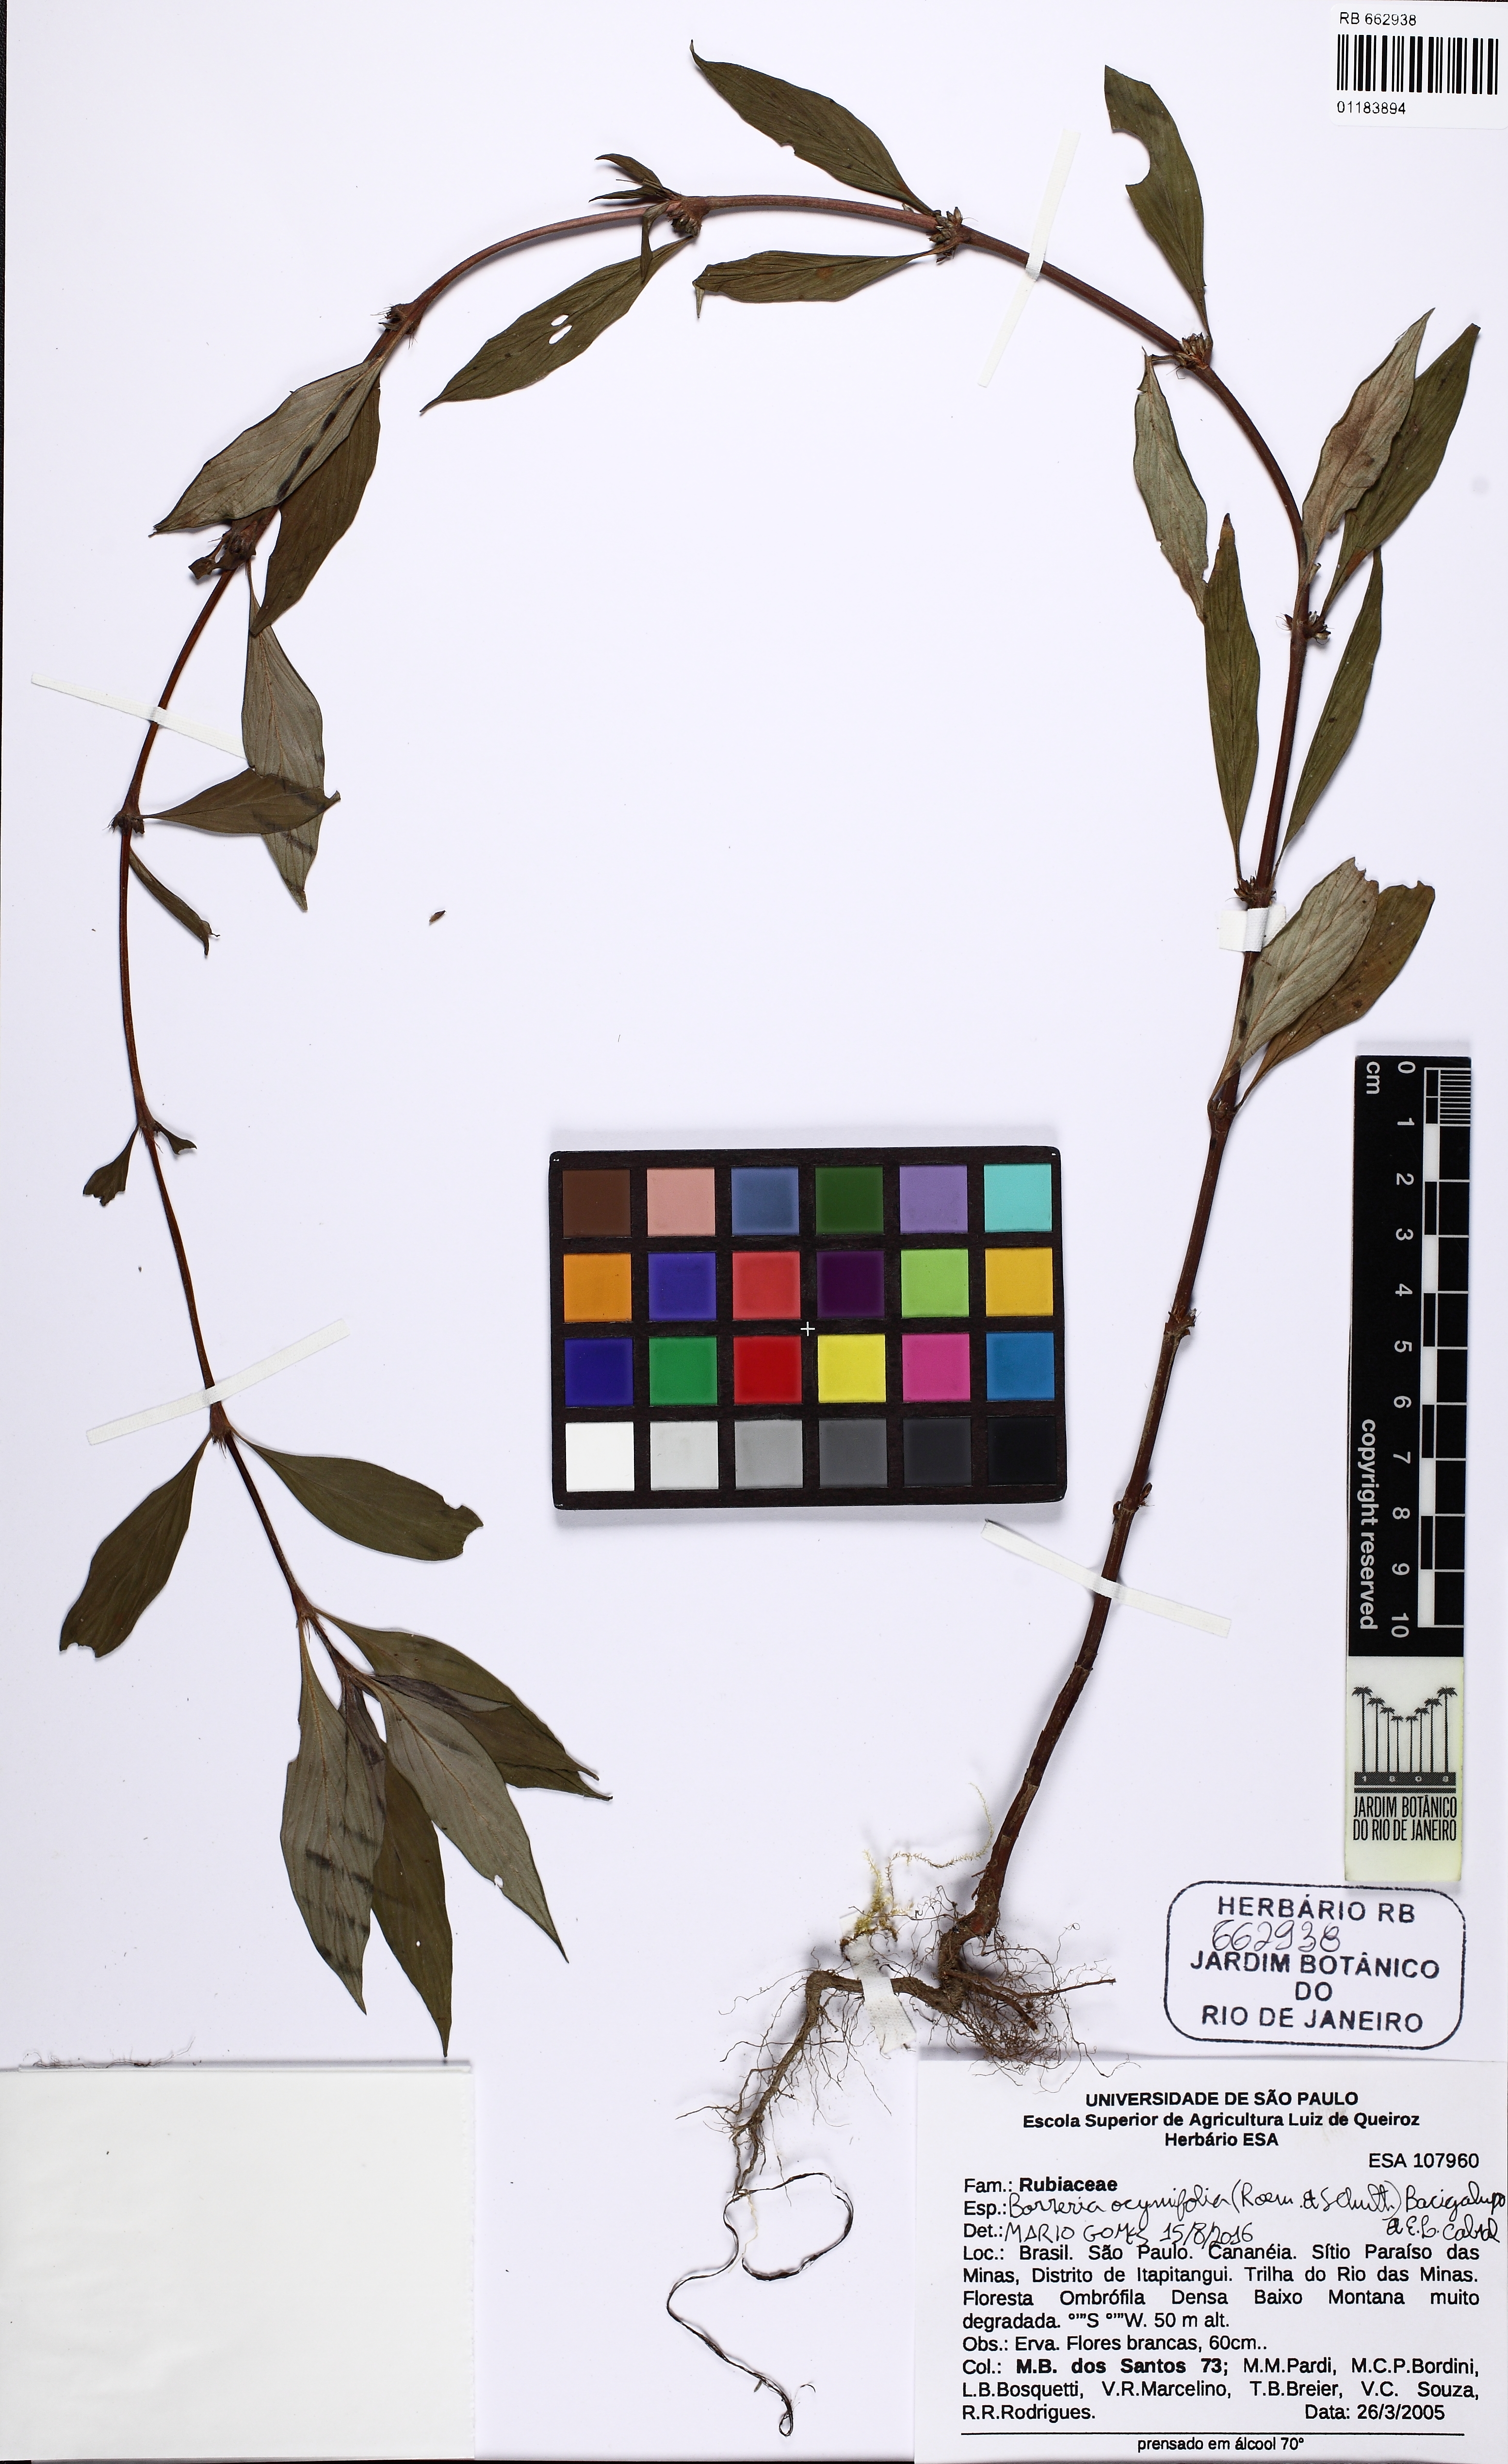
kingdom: Plantae
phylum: Tracheophyta
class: Magnoliopsida
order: Gentianales
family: Rubiaceae
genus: Spermacoce
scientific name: Spermacoce ocymifolia
